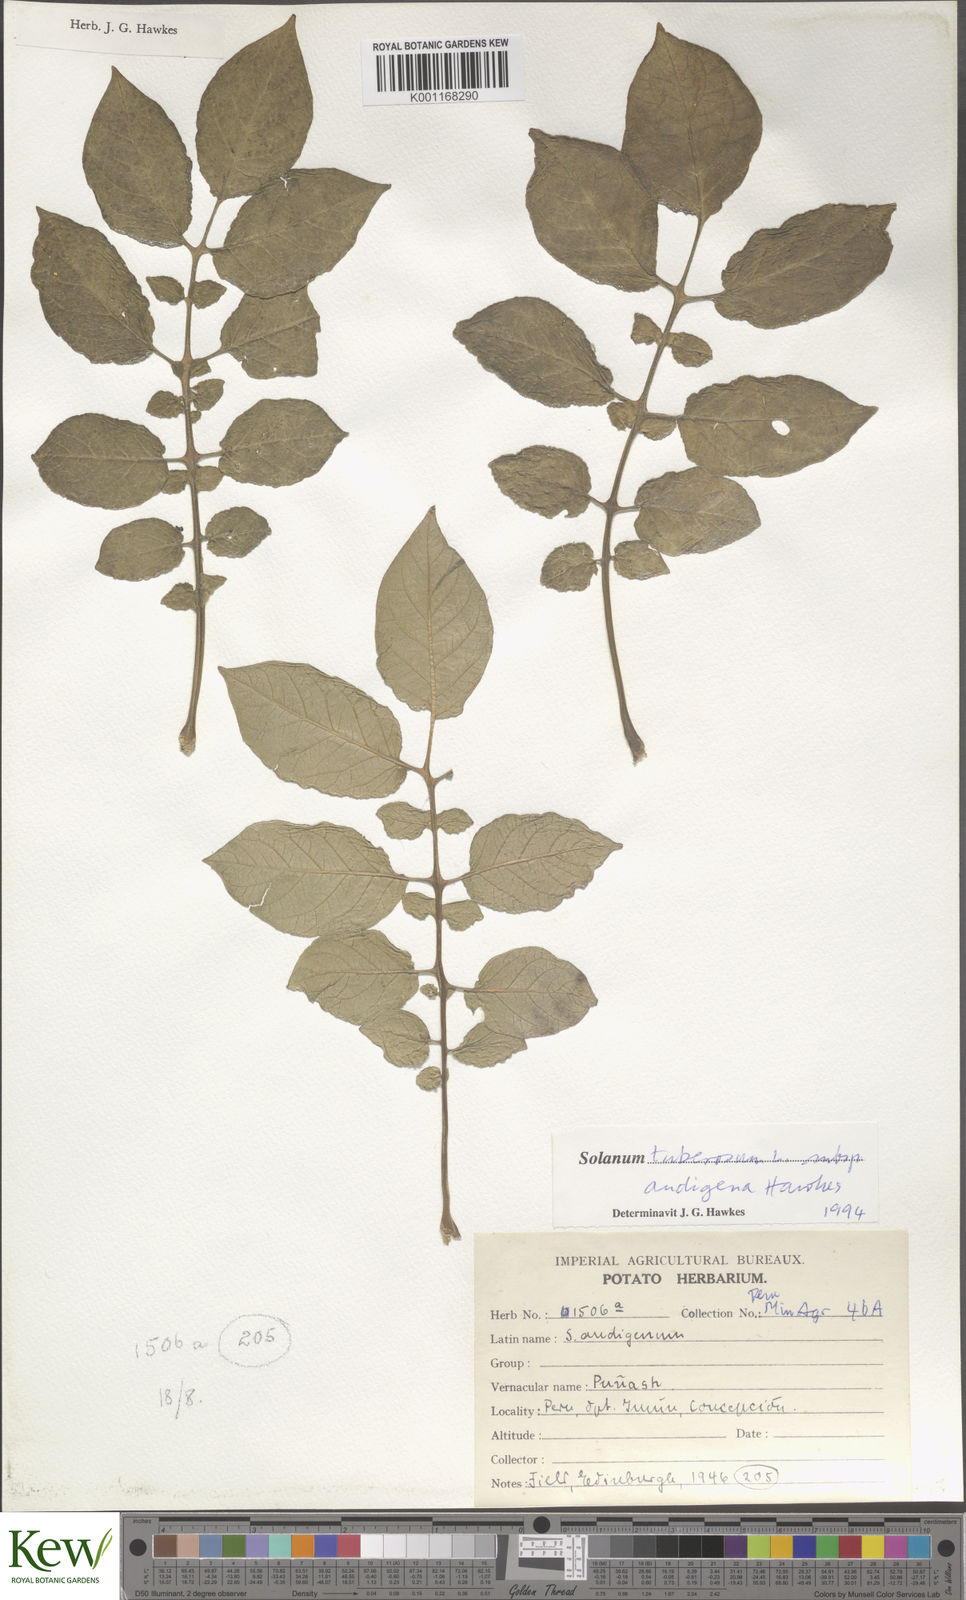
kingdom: Plantae
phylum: Tracheophyta
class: Magnoliopsida
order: Solanales
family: Solanaceae
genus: Solanum
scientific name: Solanum tuberosum
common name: Potato
